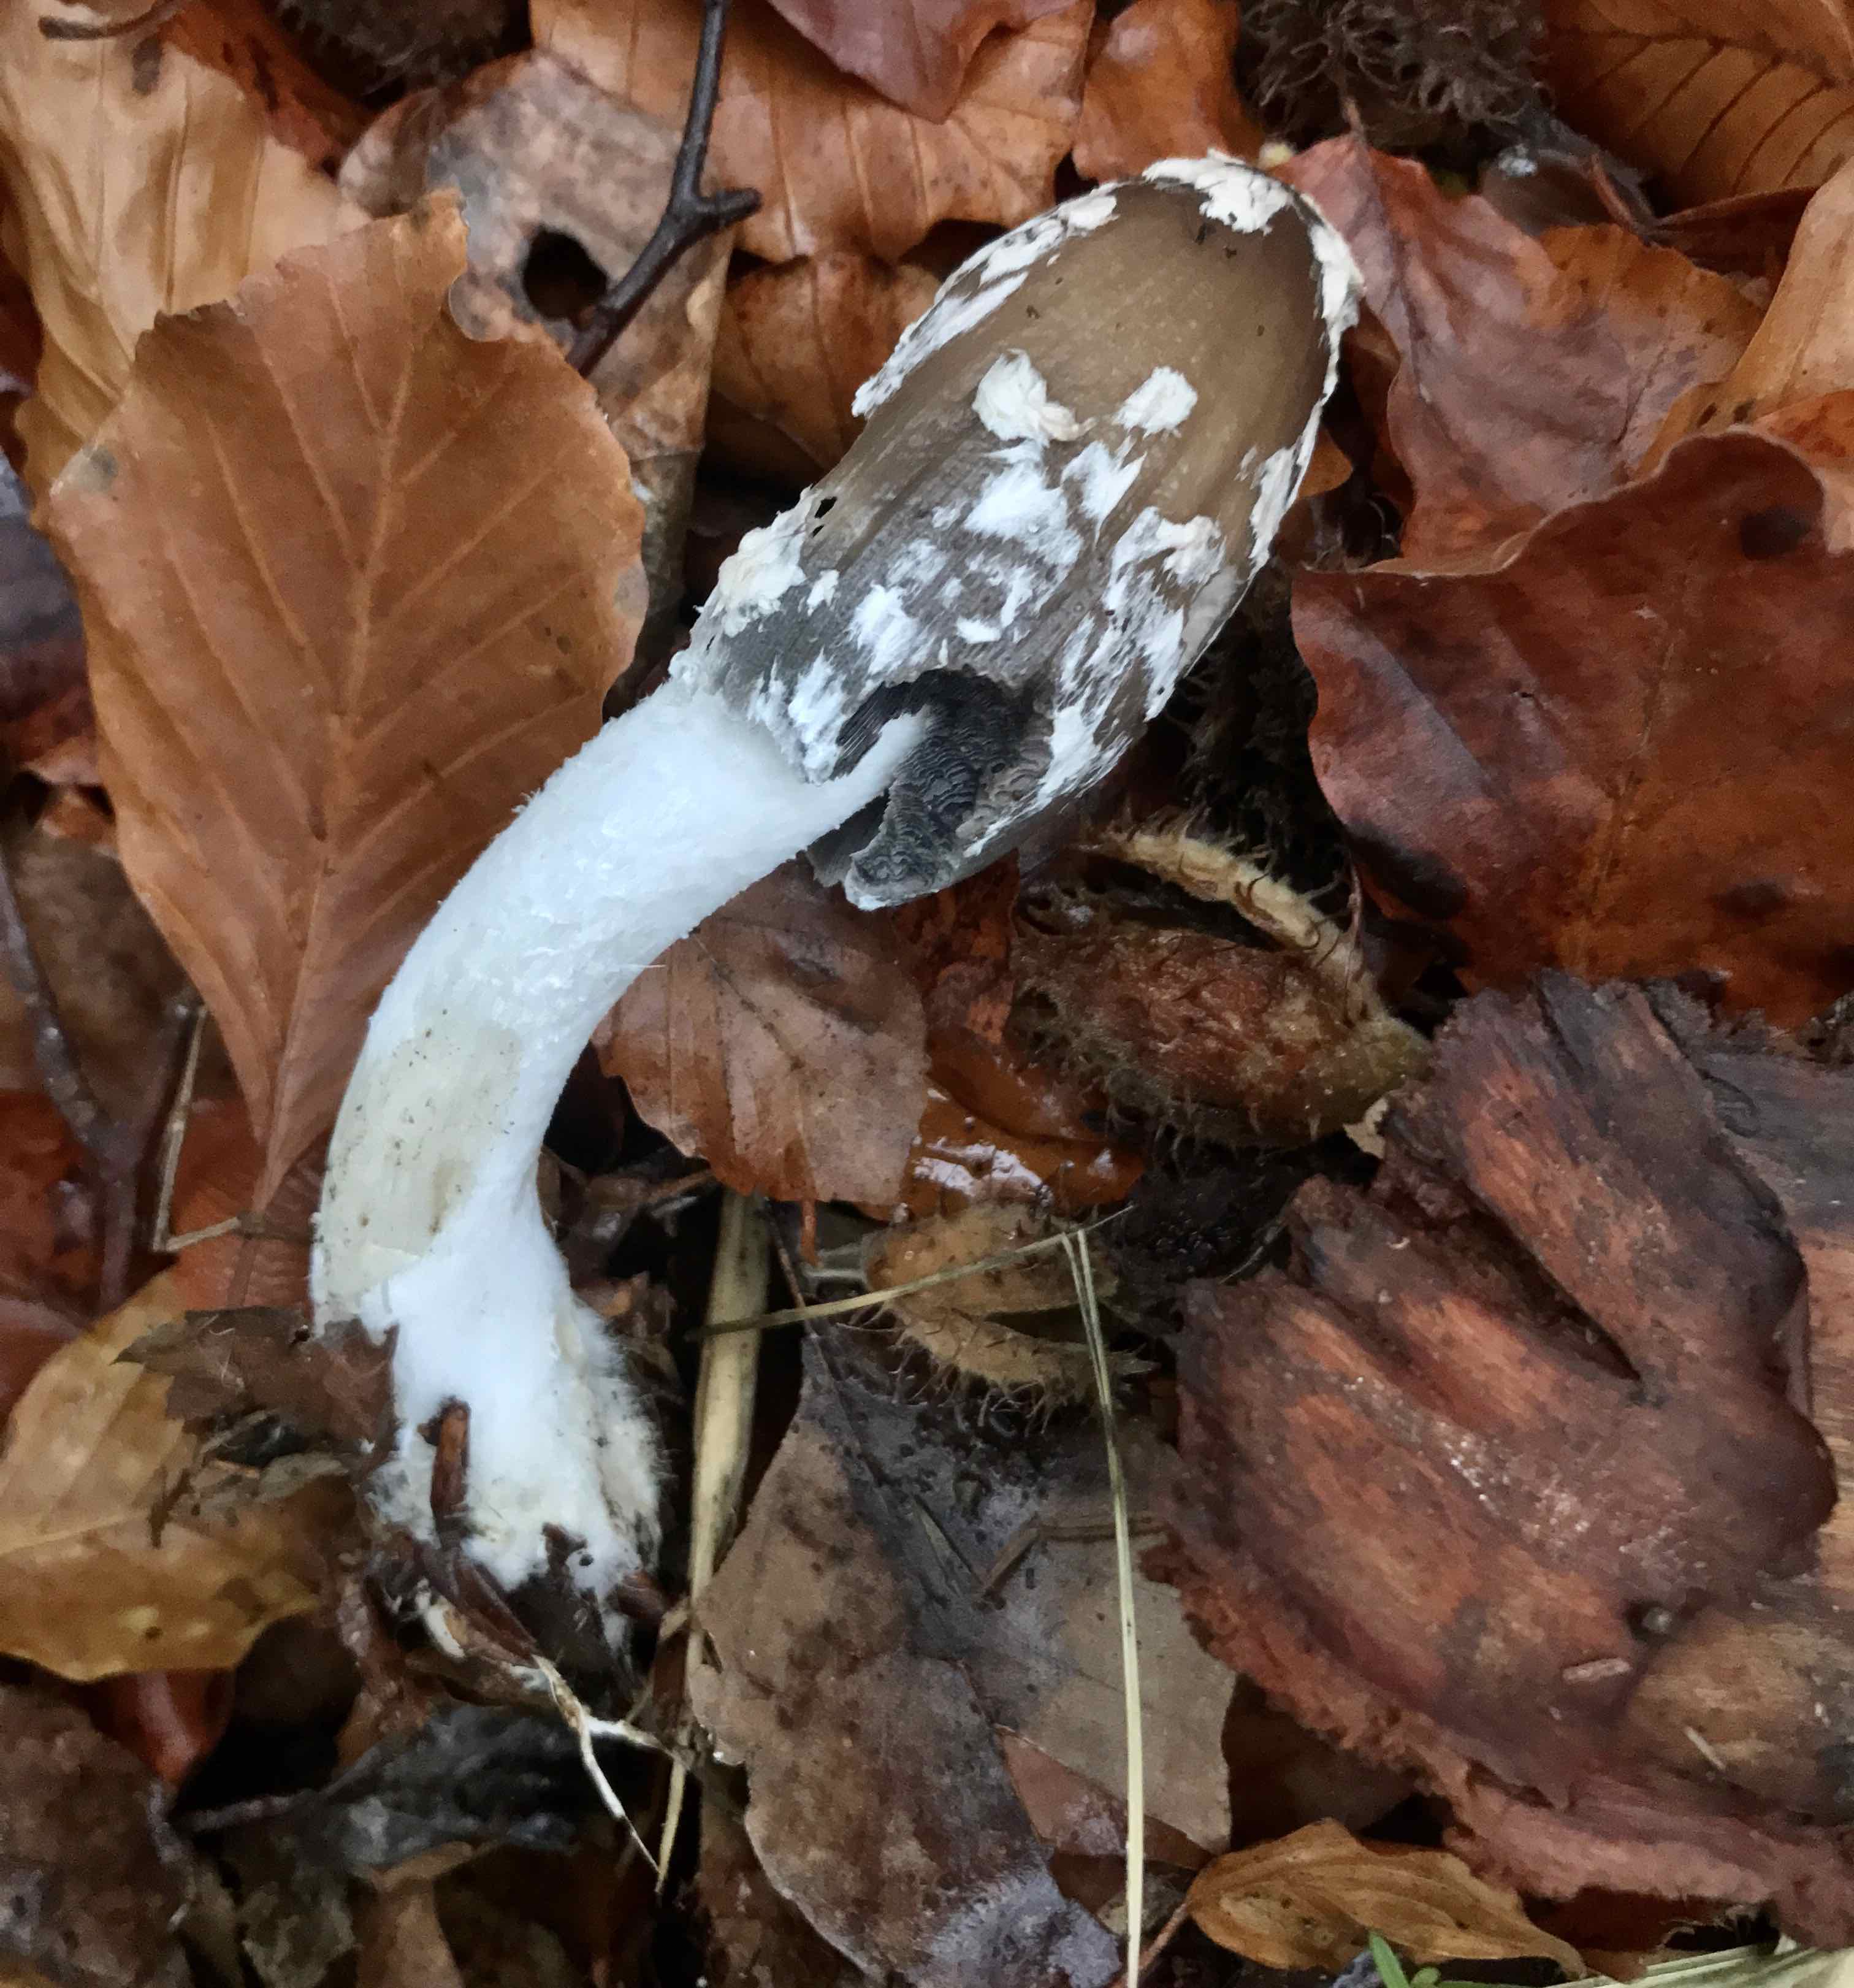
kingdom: Fungi
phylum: Basidiomycota
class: Agaricomycetes
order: Agaricales
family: Psathyrellaceae
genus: Coprinopsis
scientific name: Coprinopsis picacea
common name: skade-blækhat
